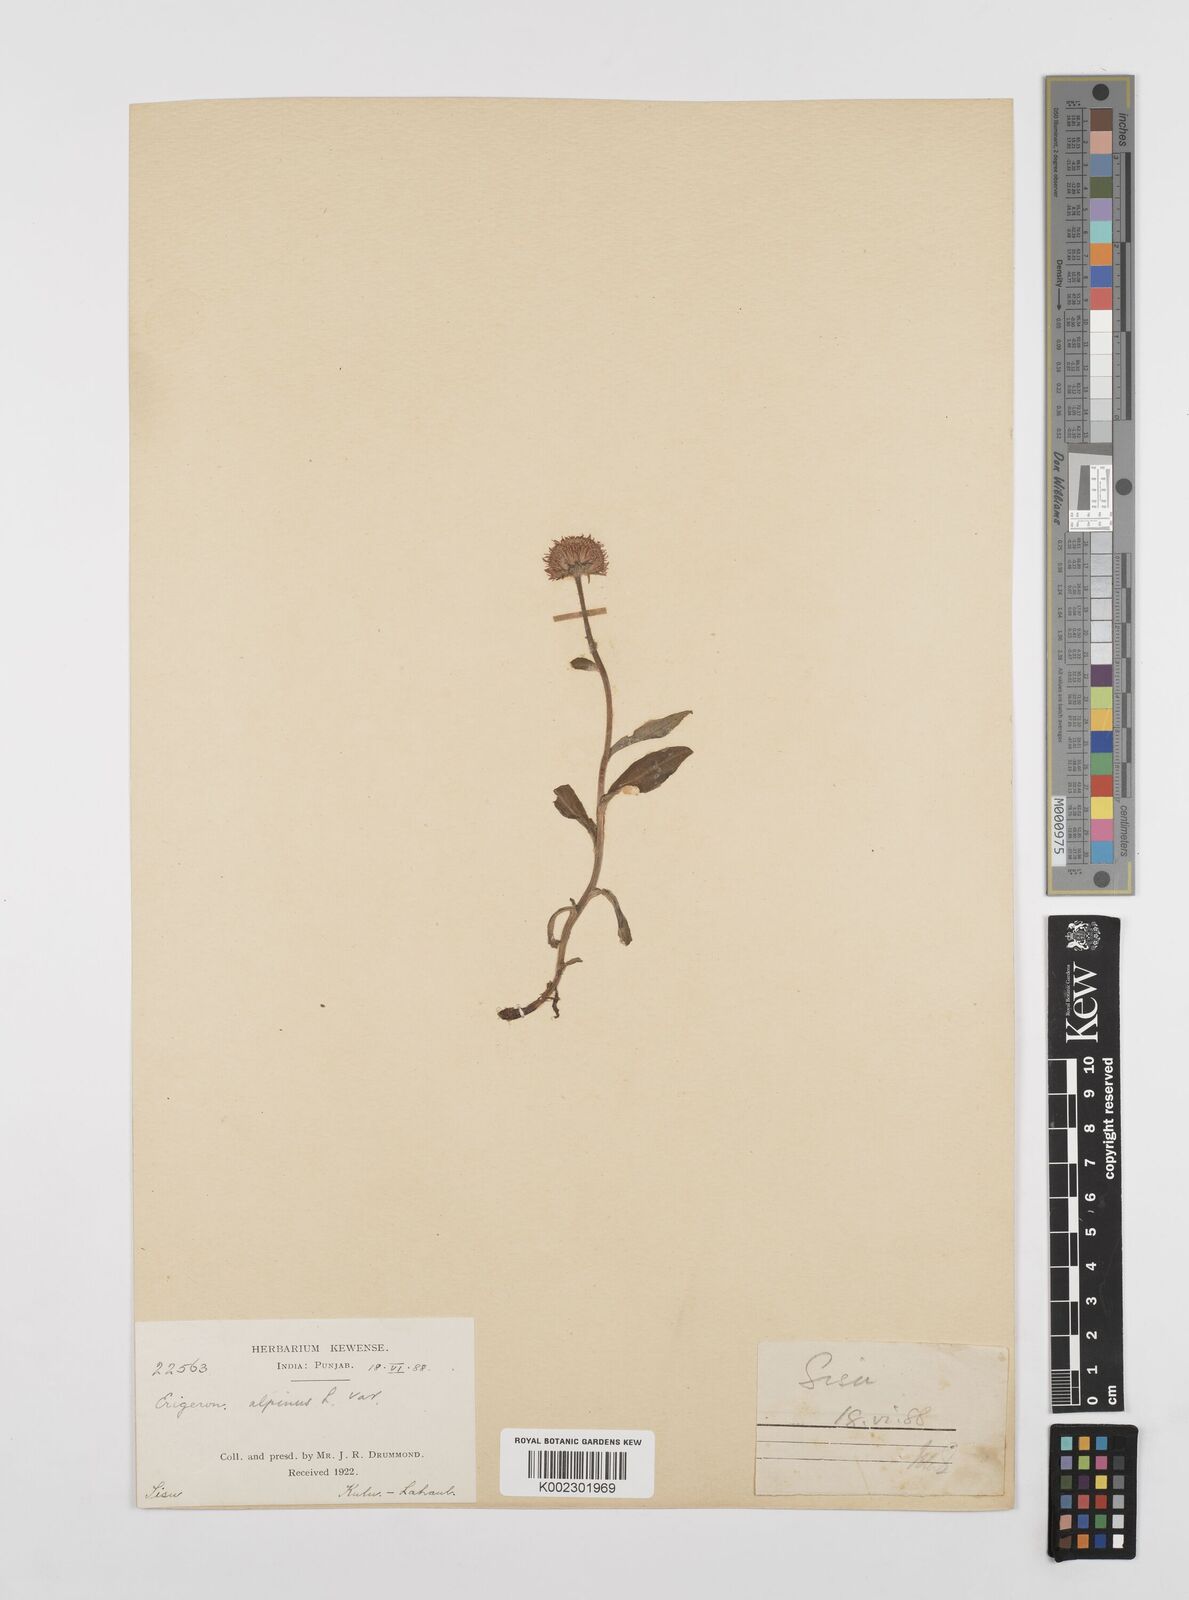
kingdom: Plantae
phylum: Tracheophyta
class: Magnoliopsida
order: Asterales
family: Asteraceae
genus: Erigeron
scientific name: Erigeron alpinus
